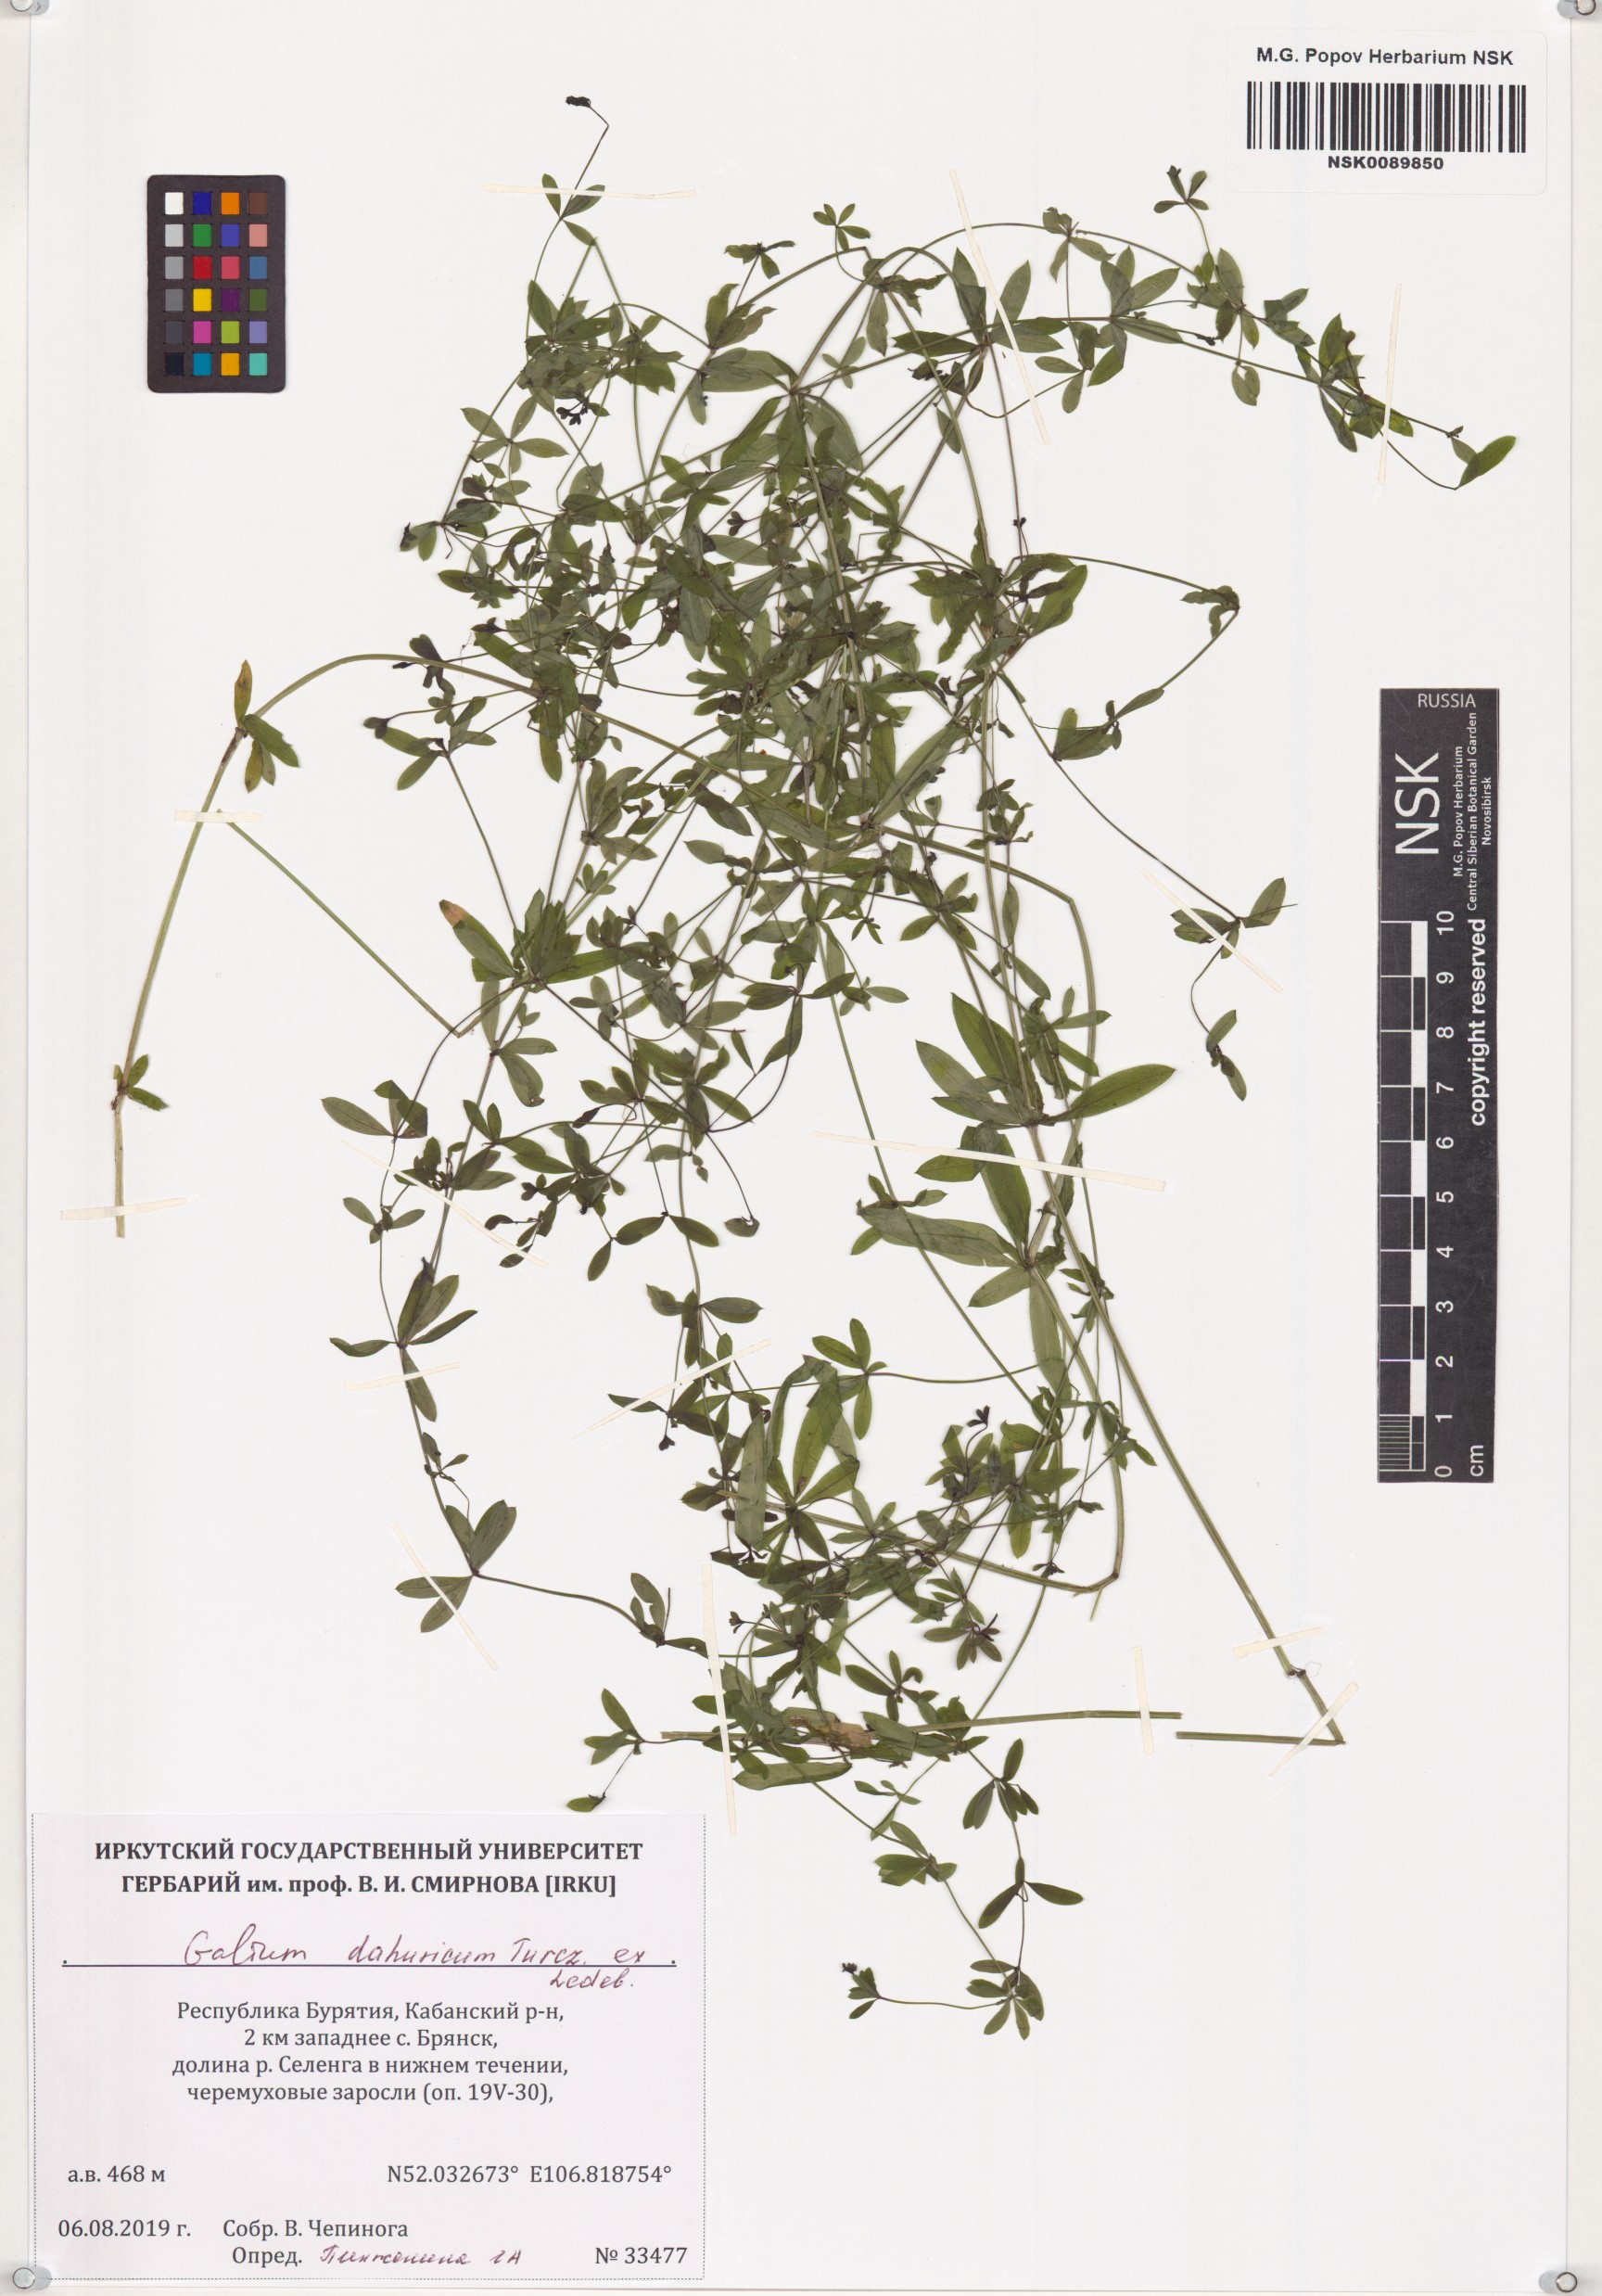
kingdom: Plantae
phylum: Tracheophyta
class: Magnoliopsida
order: Gentianales
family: Rubiaceae
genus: Galium
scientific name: Galium dahuricum
